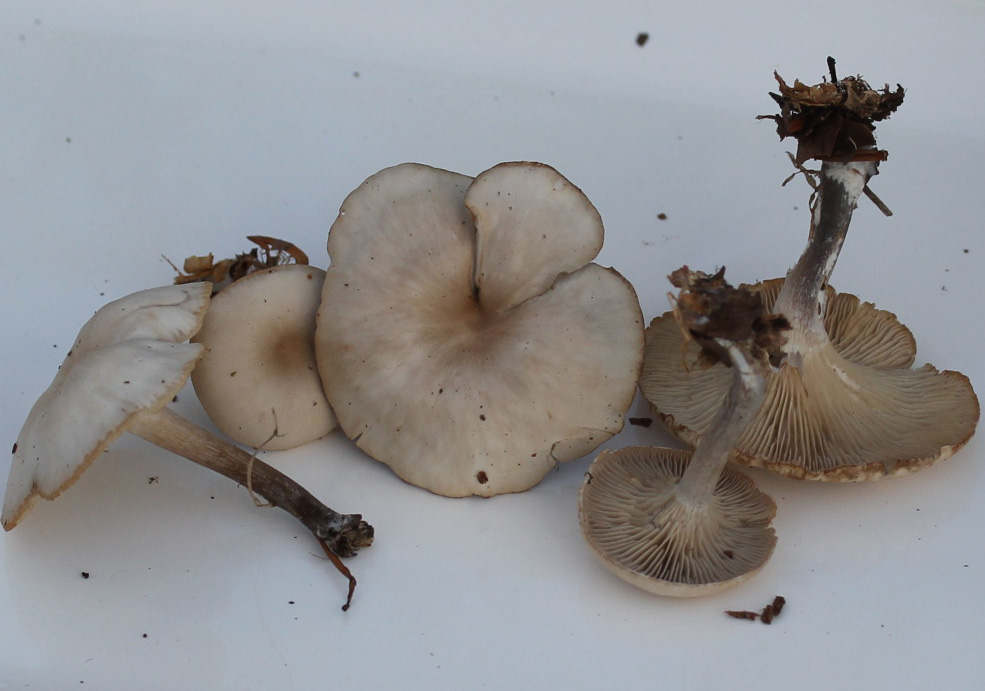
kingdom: Fungi
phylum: Basidiomycota
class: Agaricomycetes
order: Agaricales
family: Tricholomataceae
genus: Clitocybe
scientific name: Clitocybe metachroa
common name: grå tragthat
